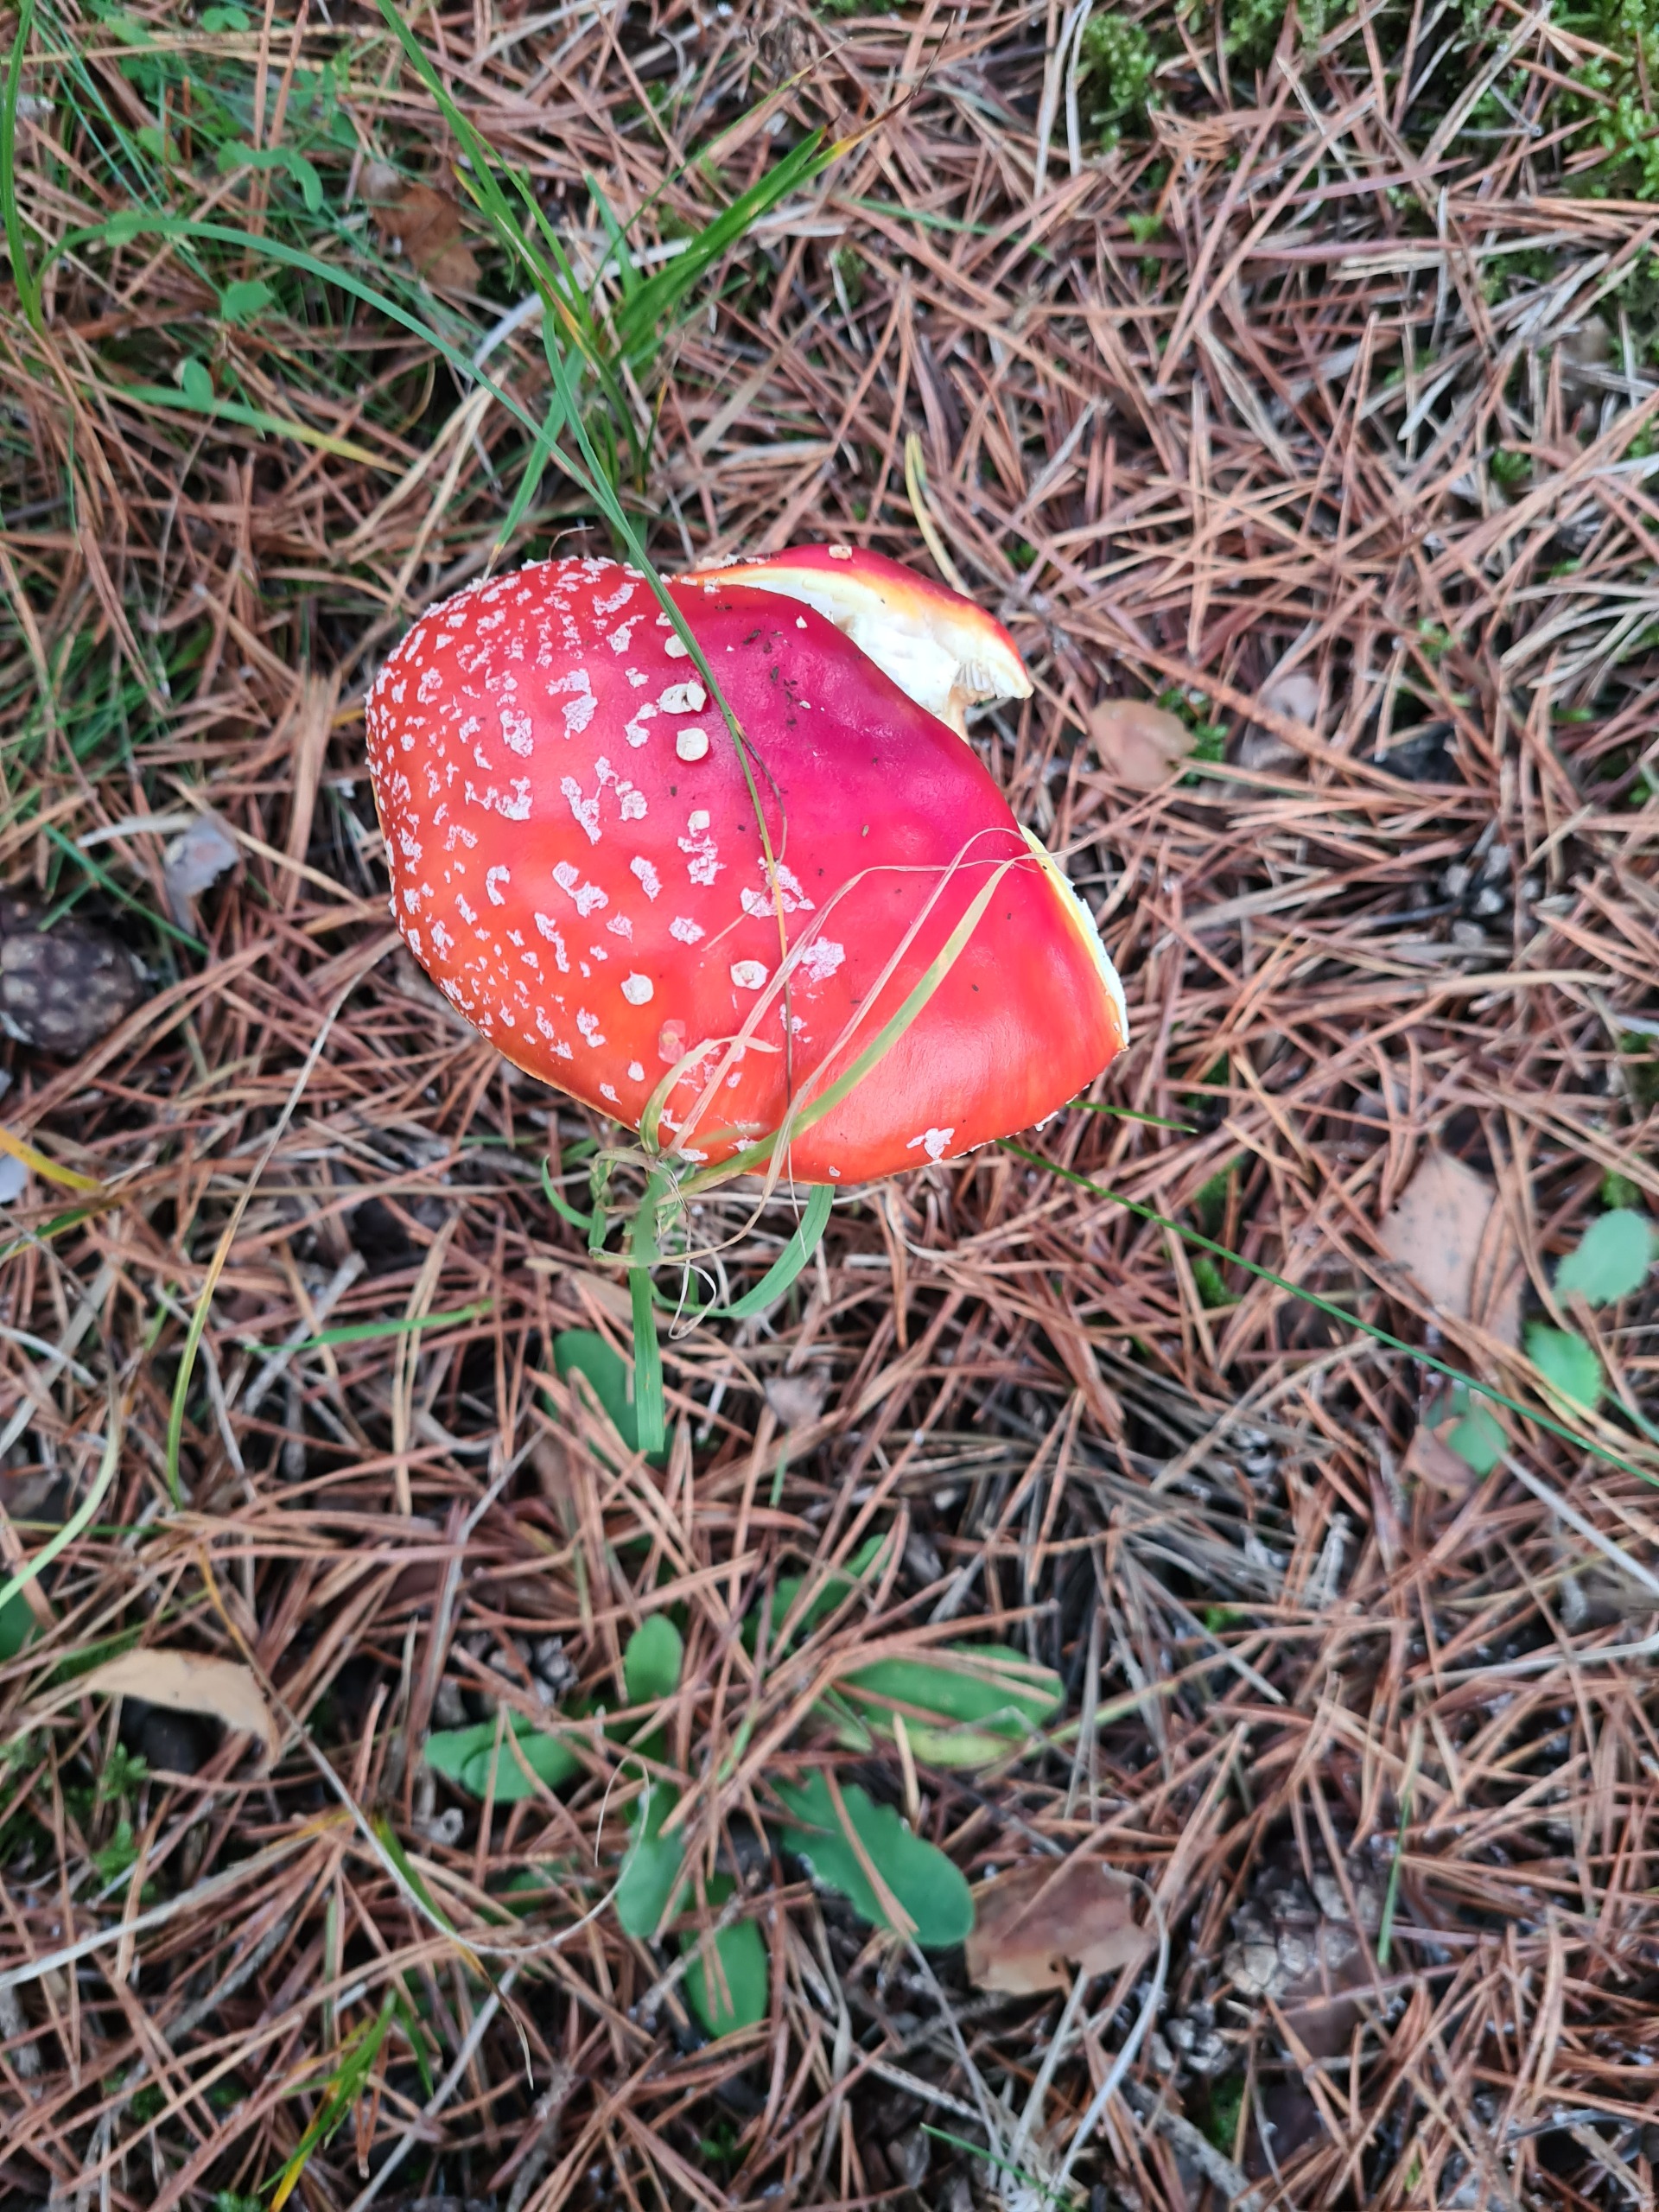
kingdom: Fungi
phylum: Basidiomycota
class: Agaricomycetes
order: Agaricales
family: Amanitaceae
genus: Amanita
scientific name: Amanita muscaria
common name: Rød fluesvamp
